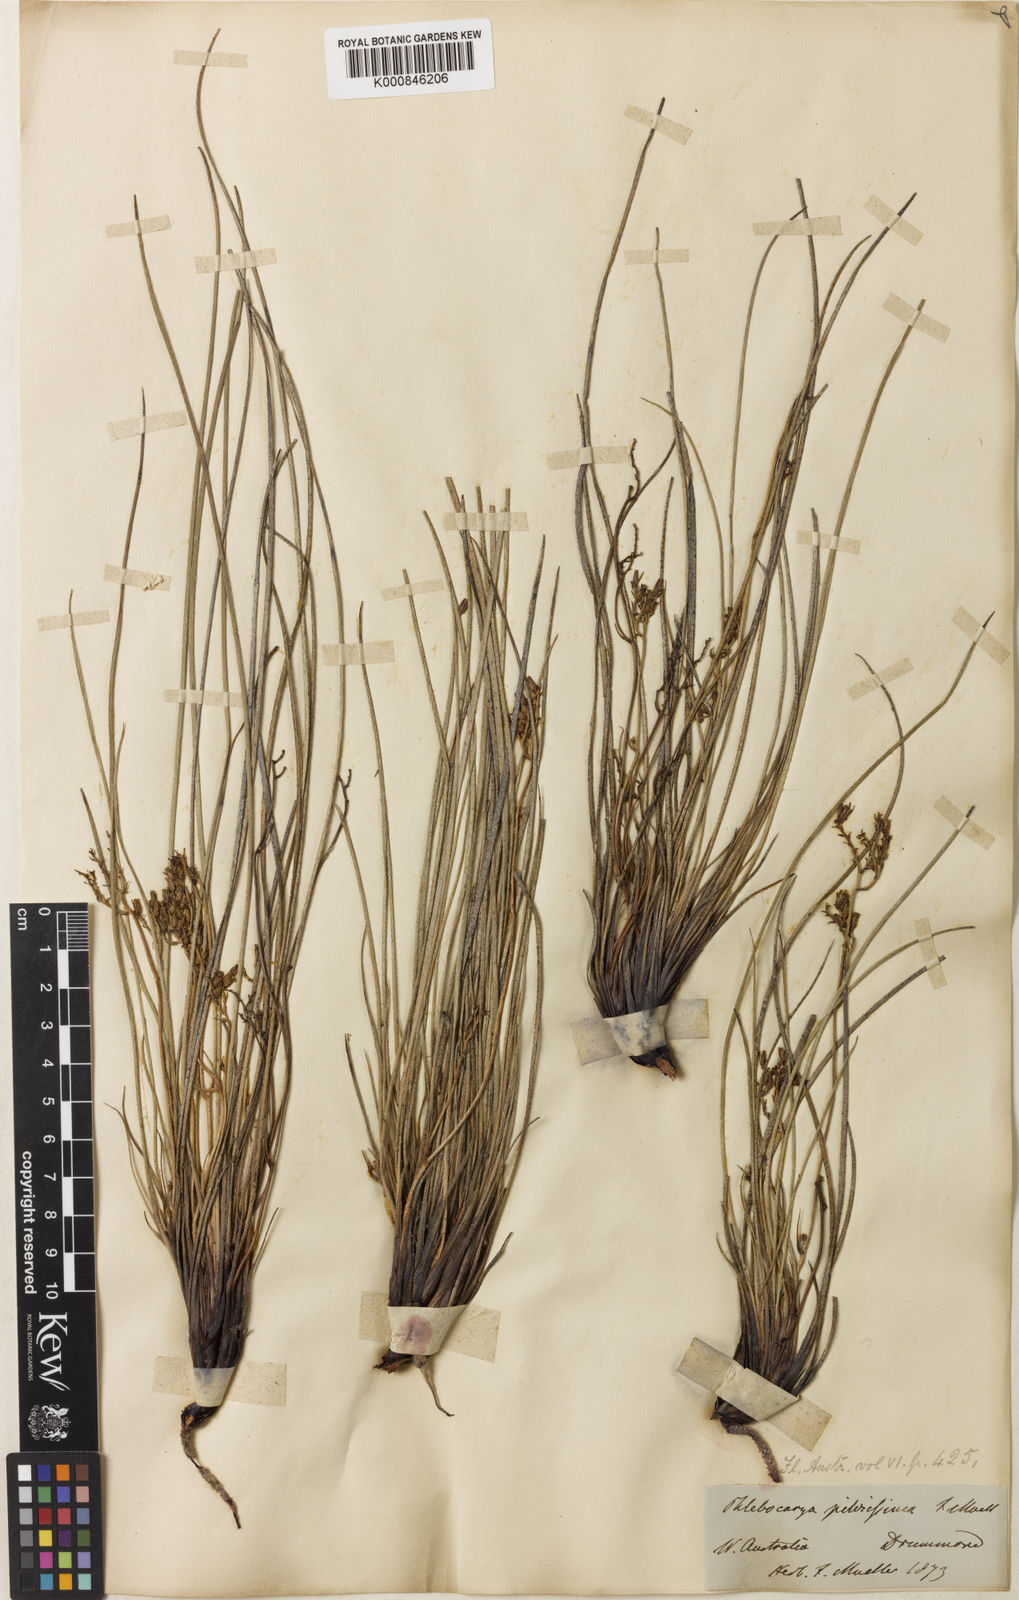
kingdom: Plantae
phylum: Tracheophyta
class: Liliopsida
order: Commelinales
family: Haemodoraceae
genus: Phlebocarya
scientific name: Phlebocarya pilosissima
